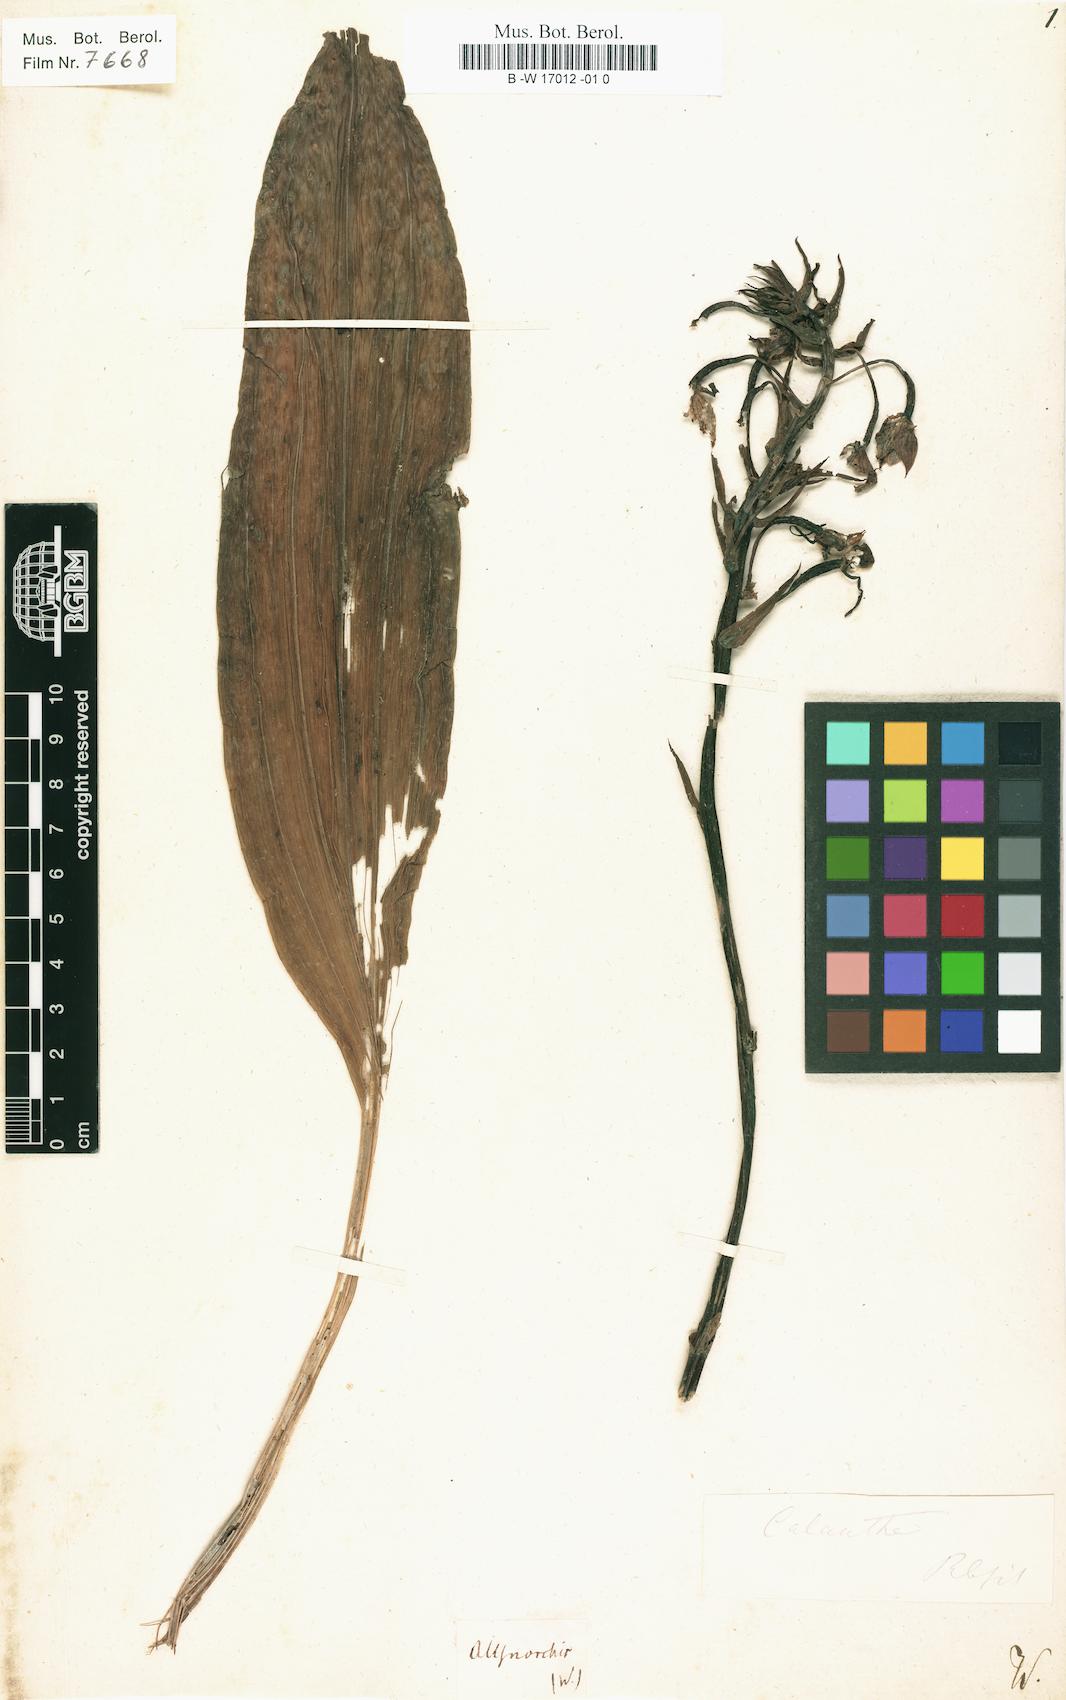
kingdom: Plantae
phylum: Tracheophyta
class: Liliopsida
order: Asparagales
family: Orchidaceae
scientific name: Orchidaceae
